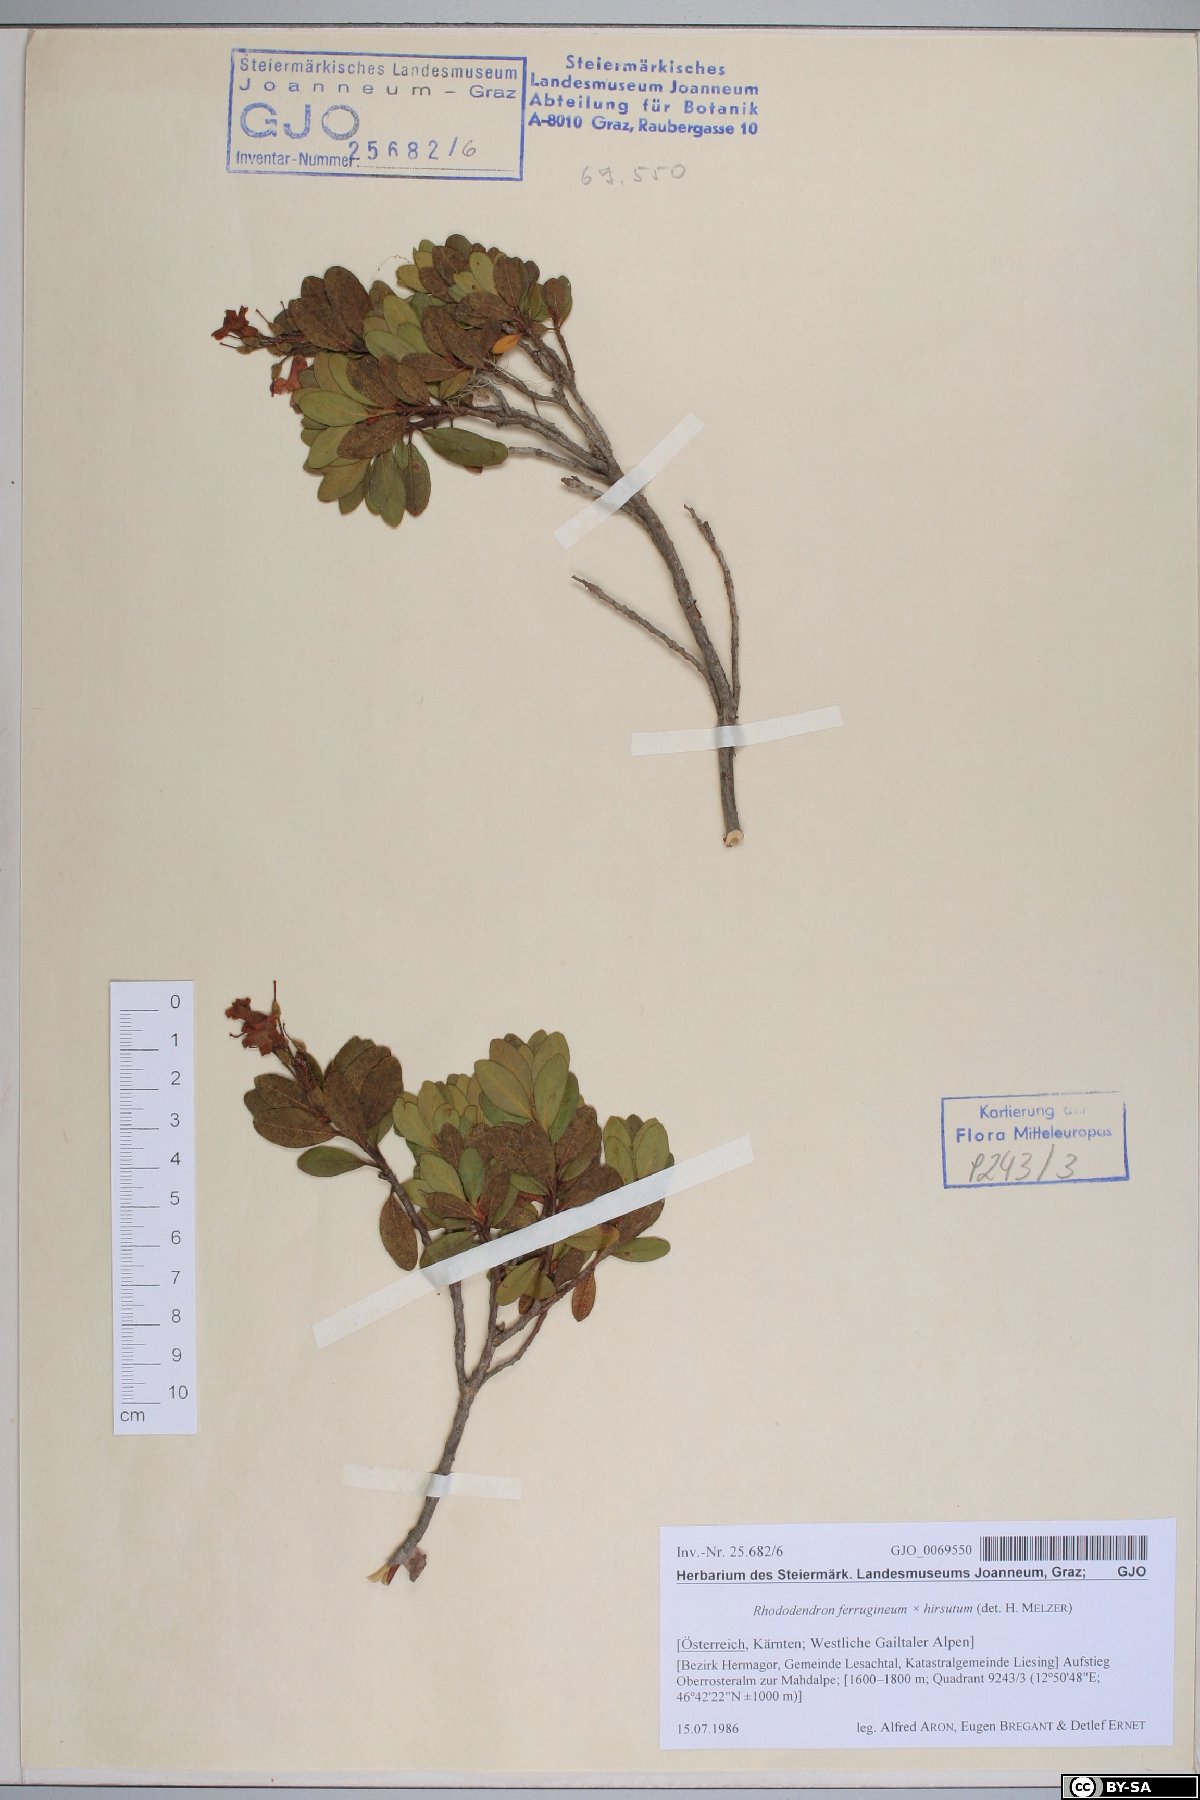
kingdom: Plantae
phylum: Tracheophyta
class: Magnoliopsida
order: Ericales
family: Ericaceae
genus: Rhododendron
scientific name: Rhododendron ferrugineum
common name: Alpenrose
